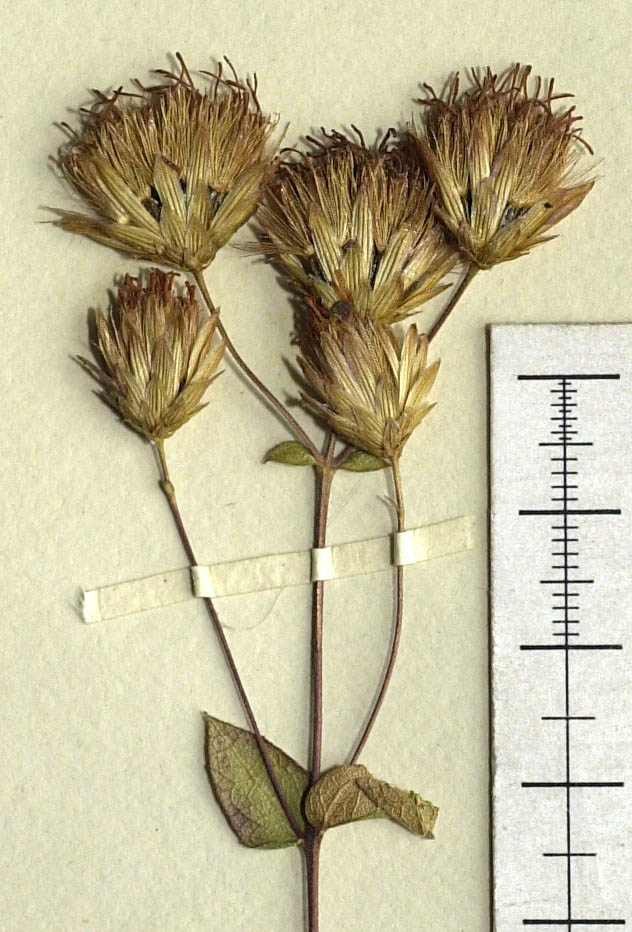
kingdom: Plantae
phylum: Tracheophyta
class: Magnoliopsida
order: Asterales
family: Asteraceae
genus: Steviopsis
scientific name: Steviopsis dryophila
